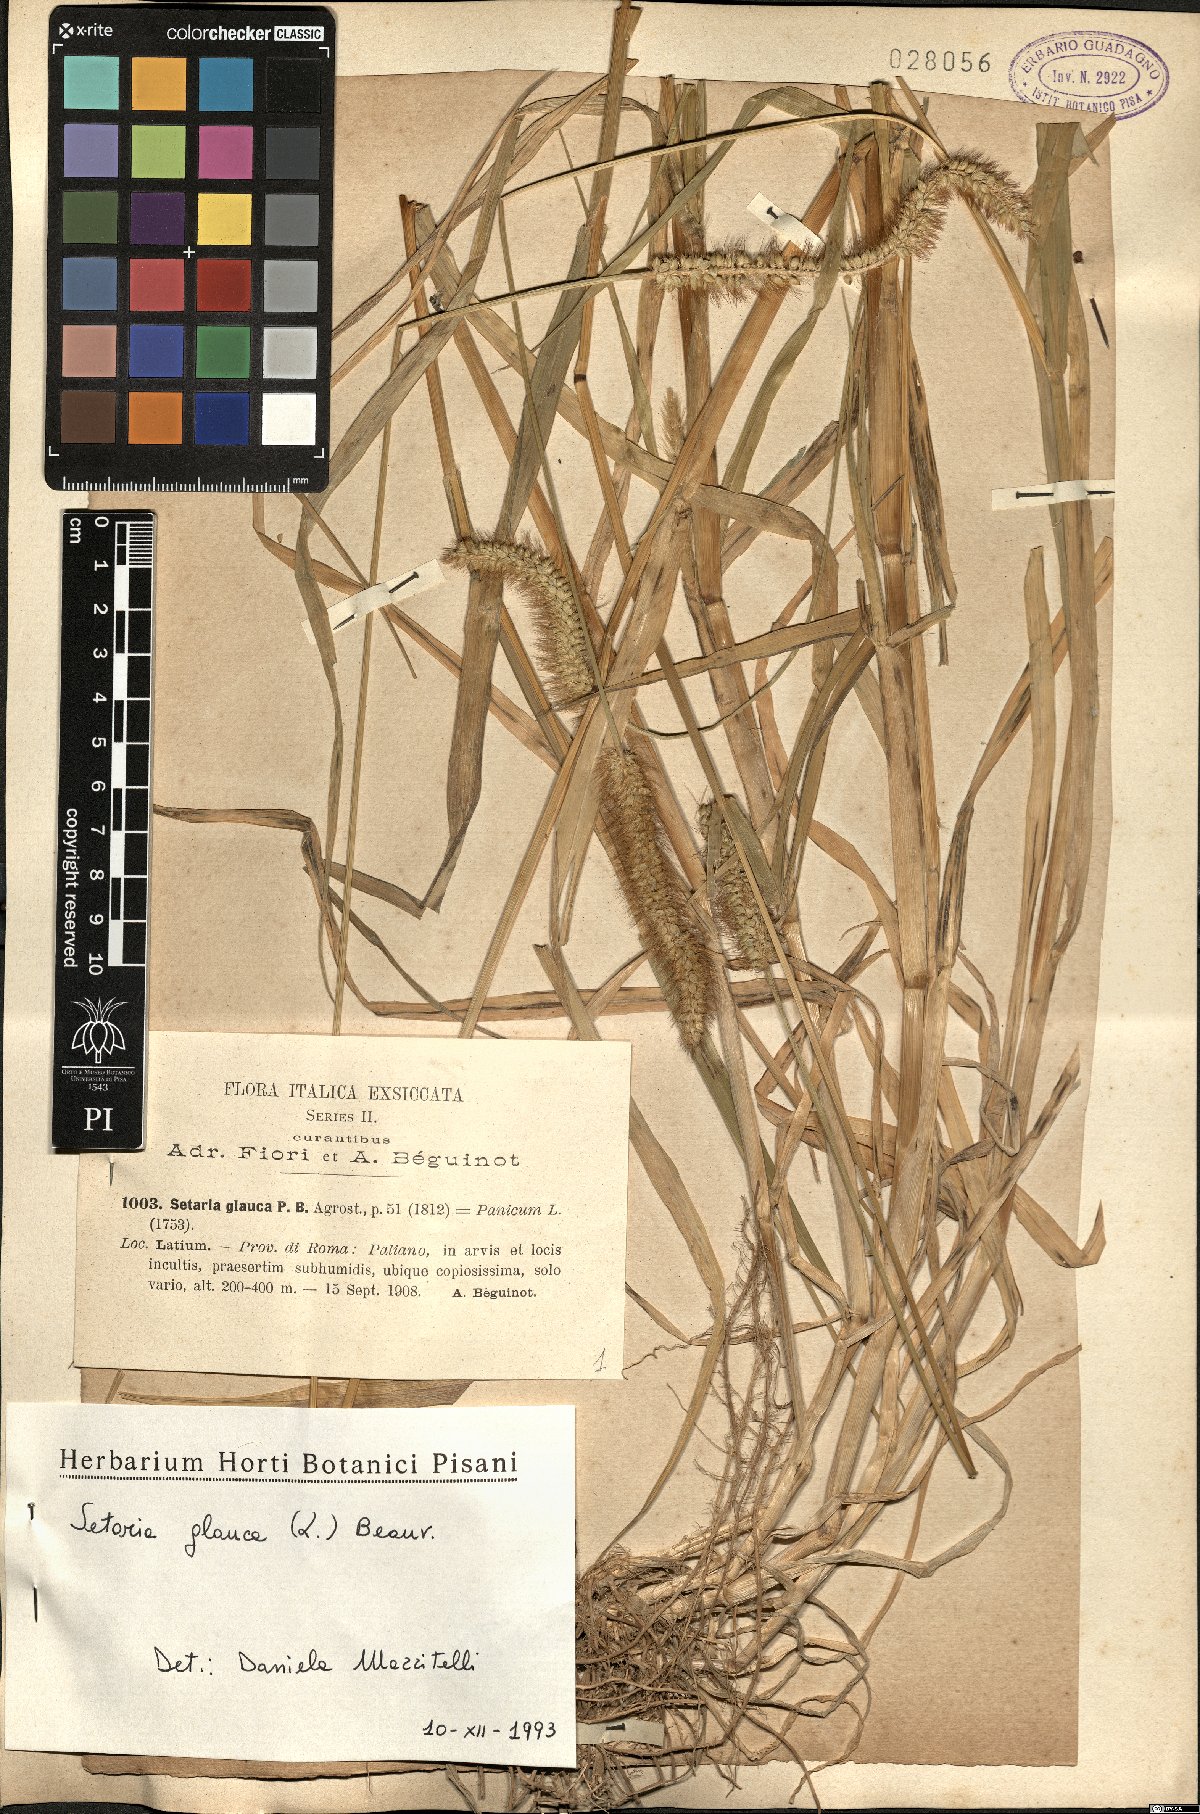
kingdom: Plantae
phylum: Tracheophyta
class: Liliopsida
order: Poales
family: Poaceae
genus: Cenchrus
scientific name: Cenchrus americanus
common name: Pearl millet
